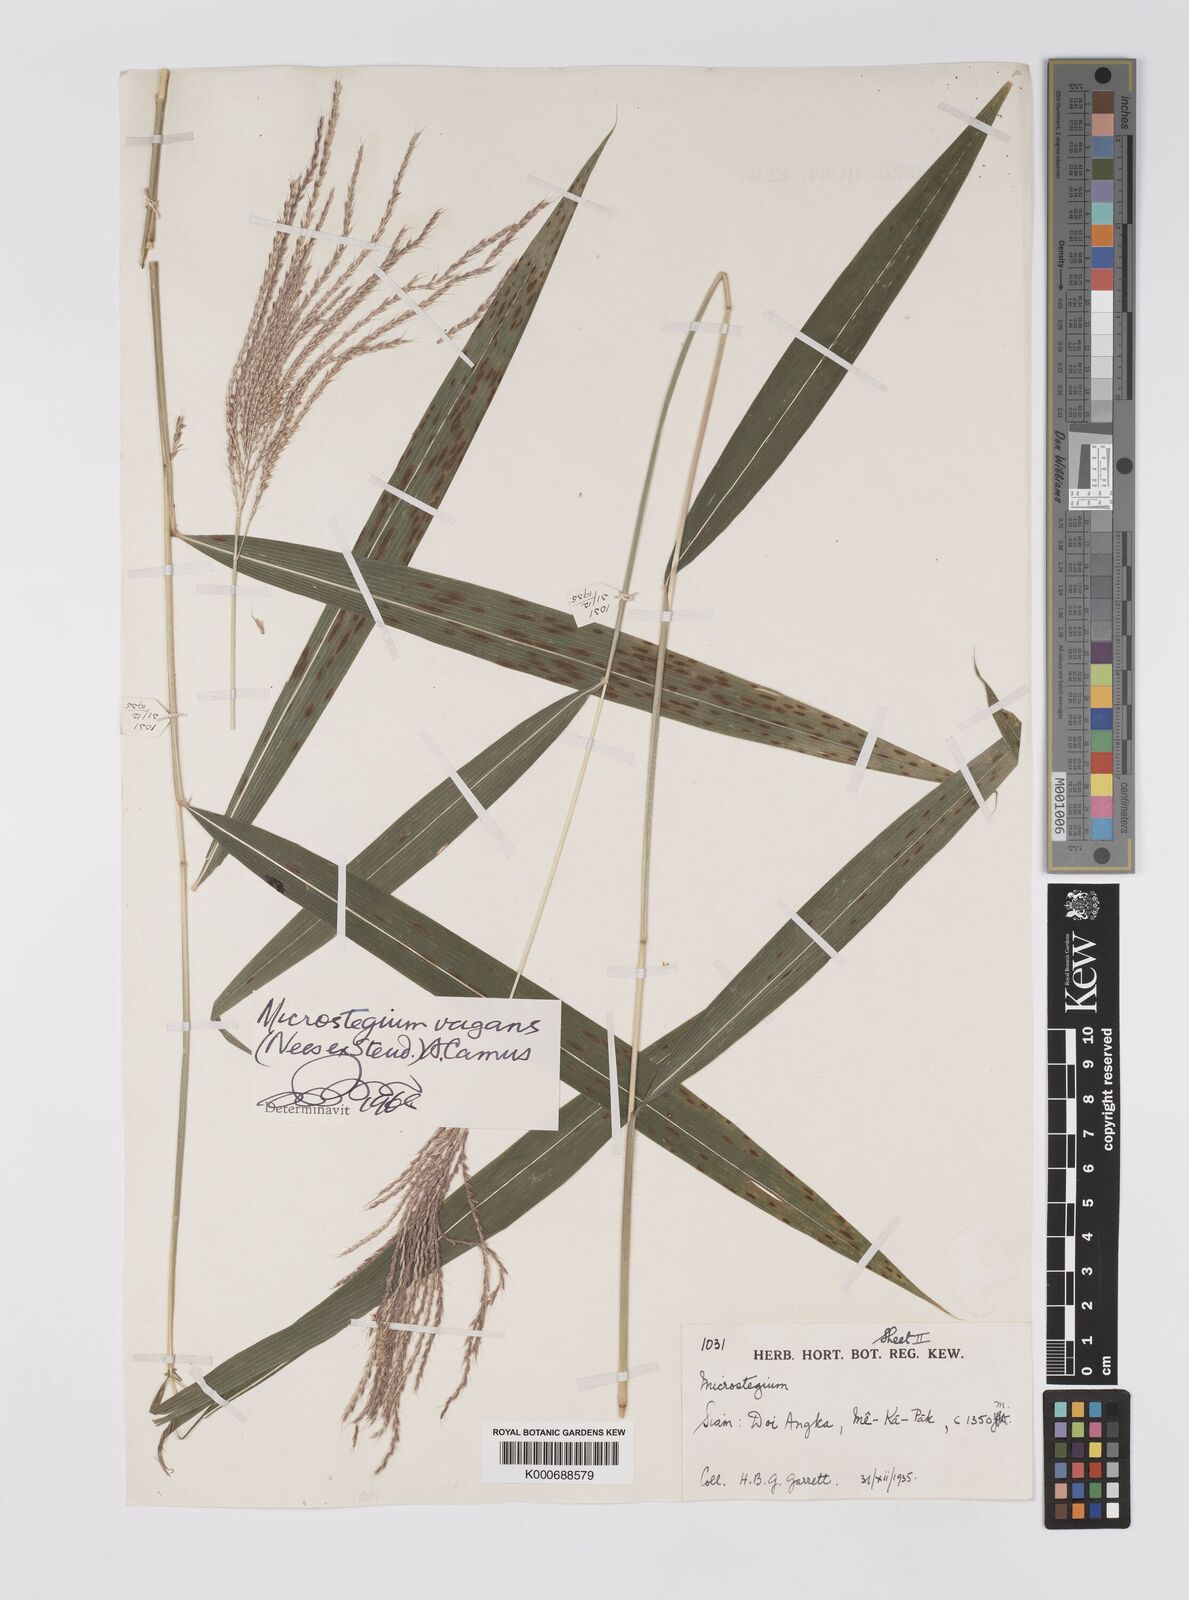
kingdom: Plantae
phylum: Tracheophyta
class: Liliopsida
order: Poales
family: Poaceae
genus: Microstegium
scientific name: Microstegium fasciculatum
